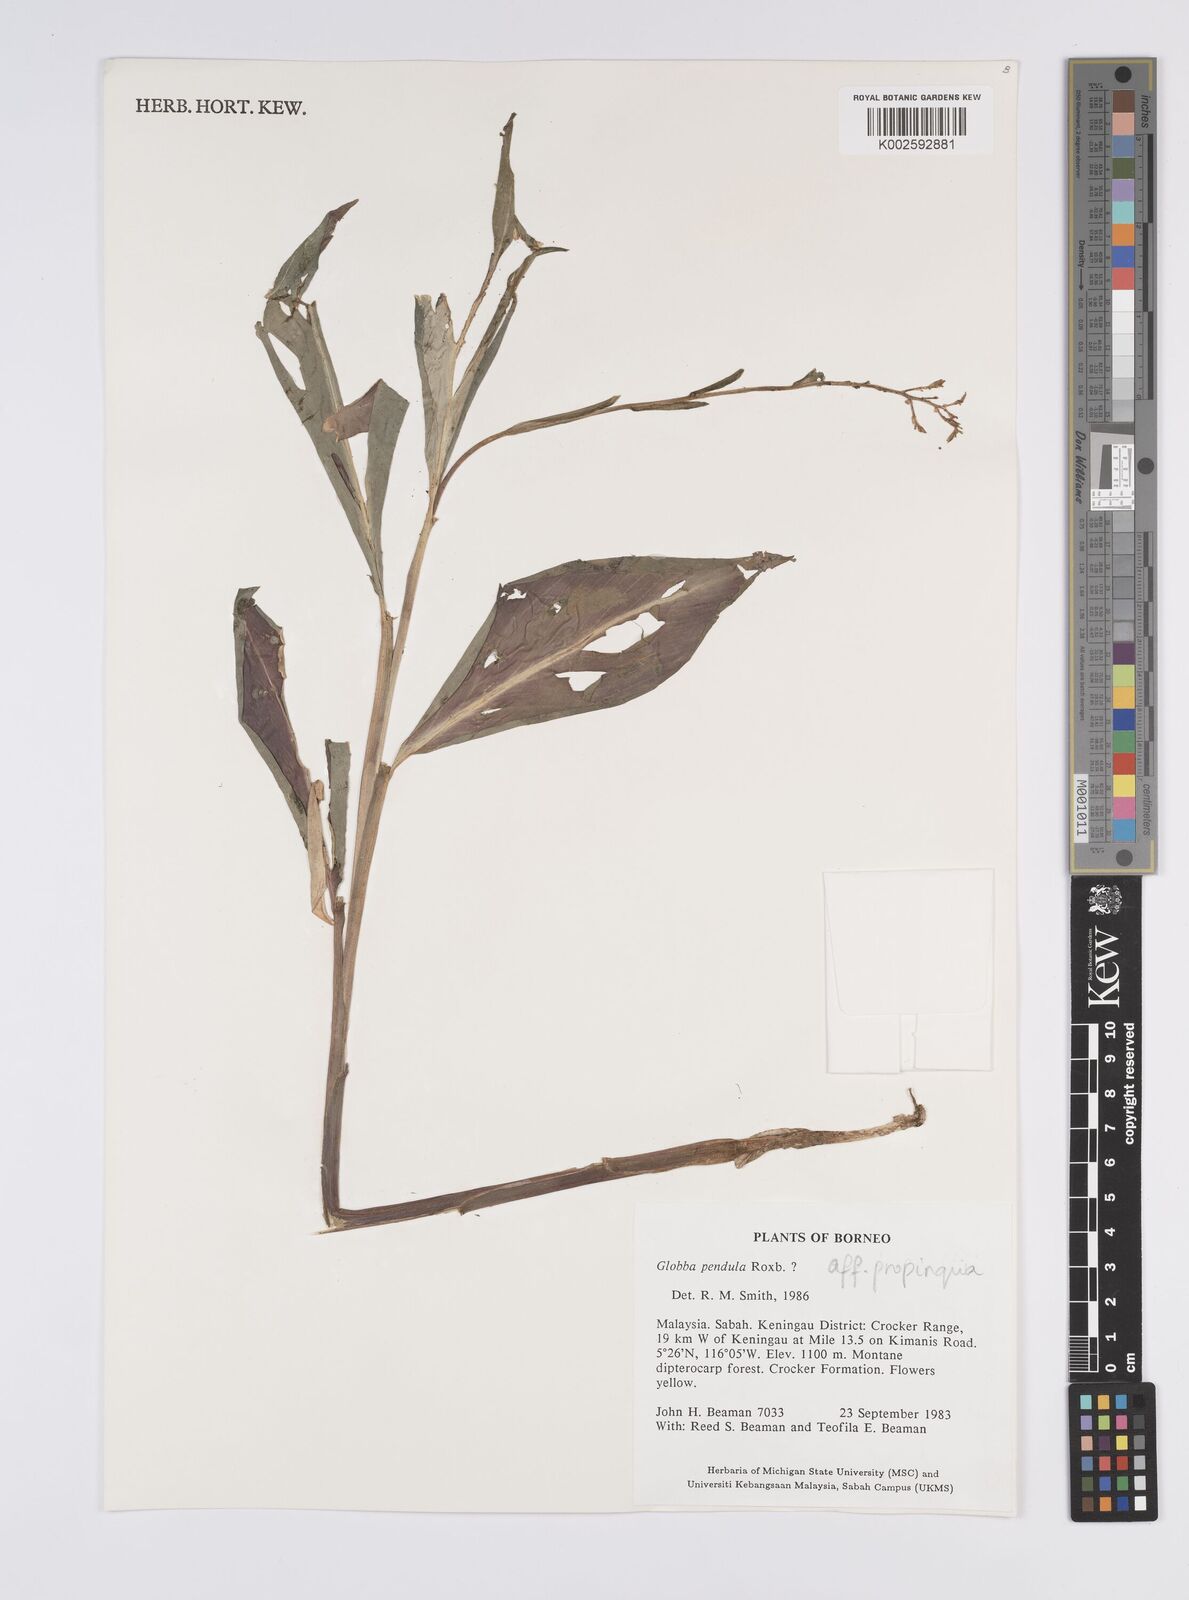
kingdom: Plantae
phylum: Tracheophyta
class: Liliopsida
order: Zingiberales
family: Zingiberaceae
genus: Globba
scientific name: Globba propinqua
